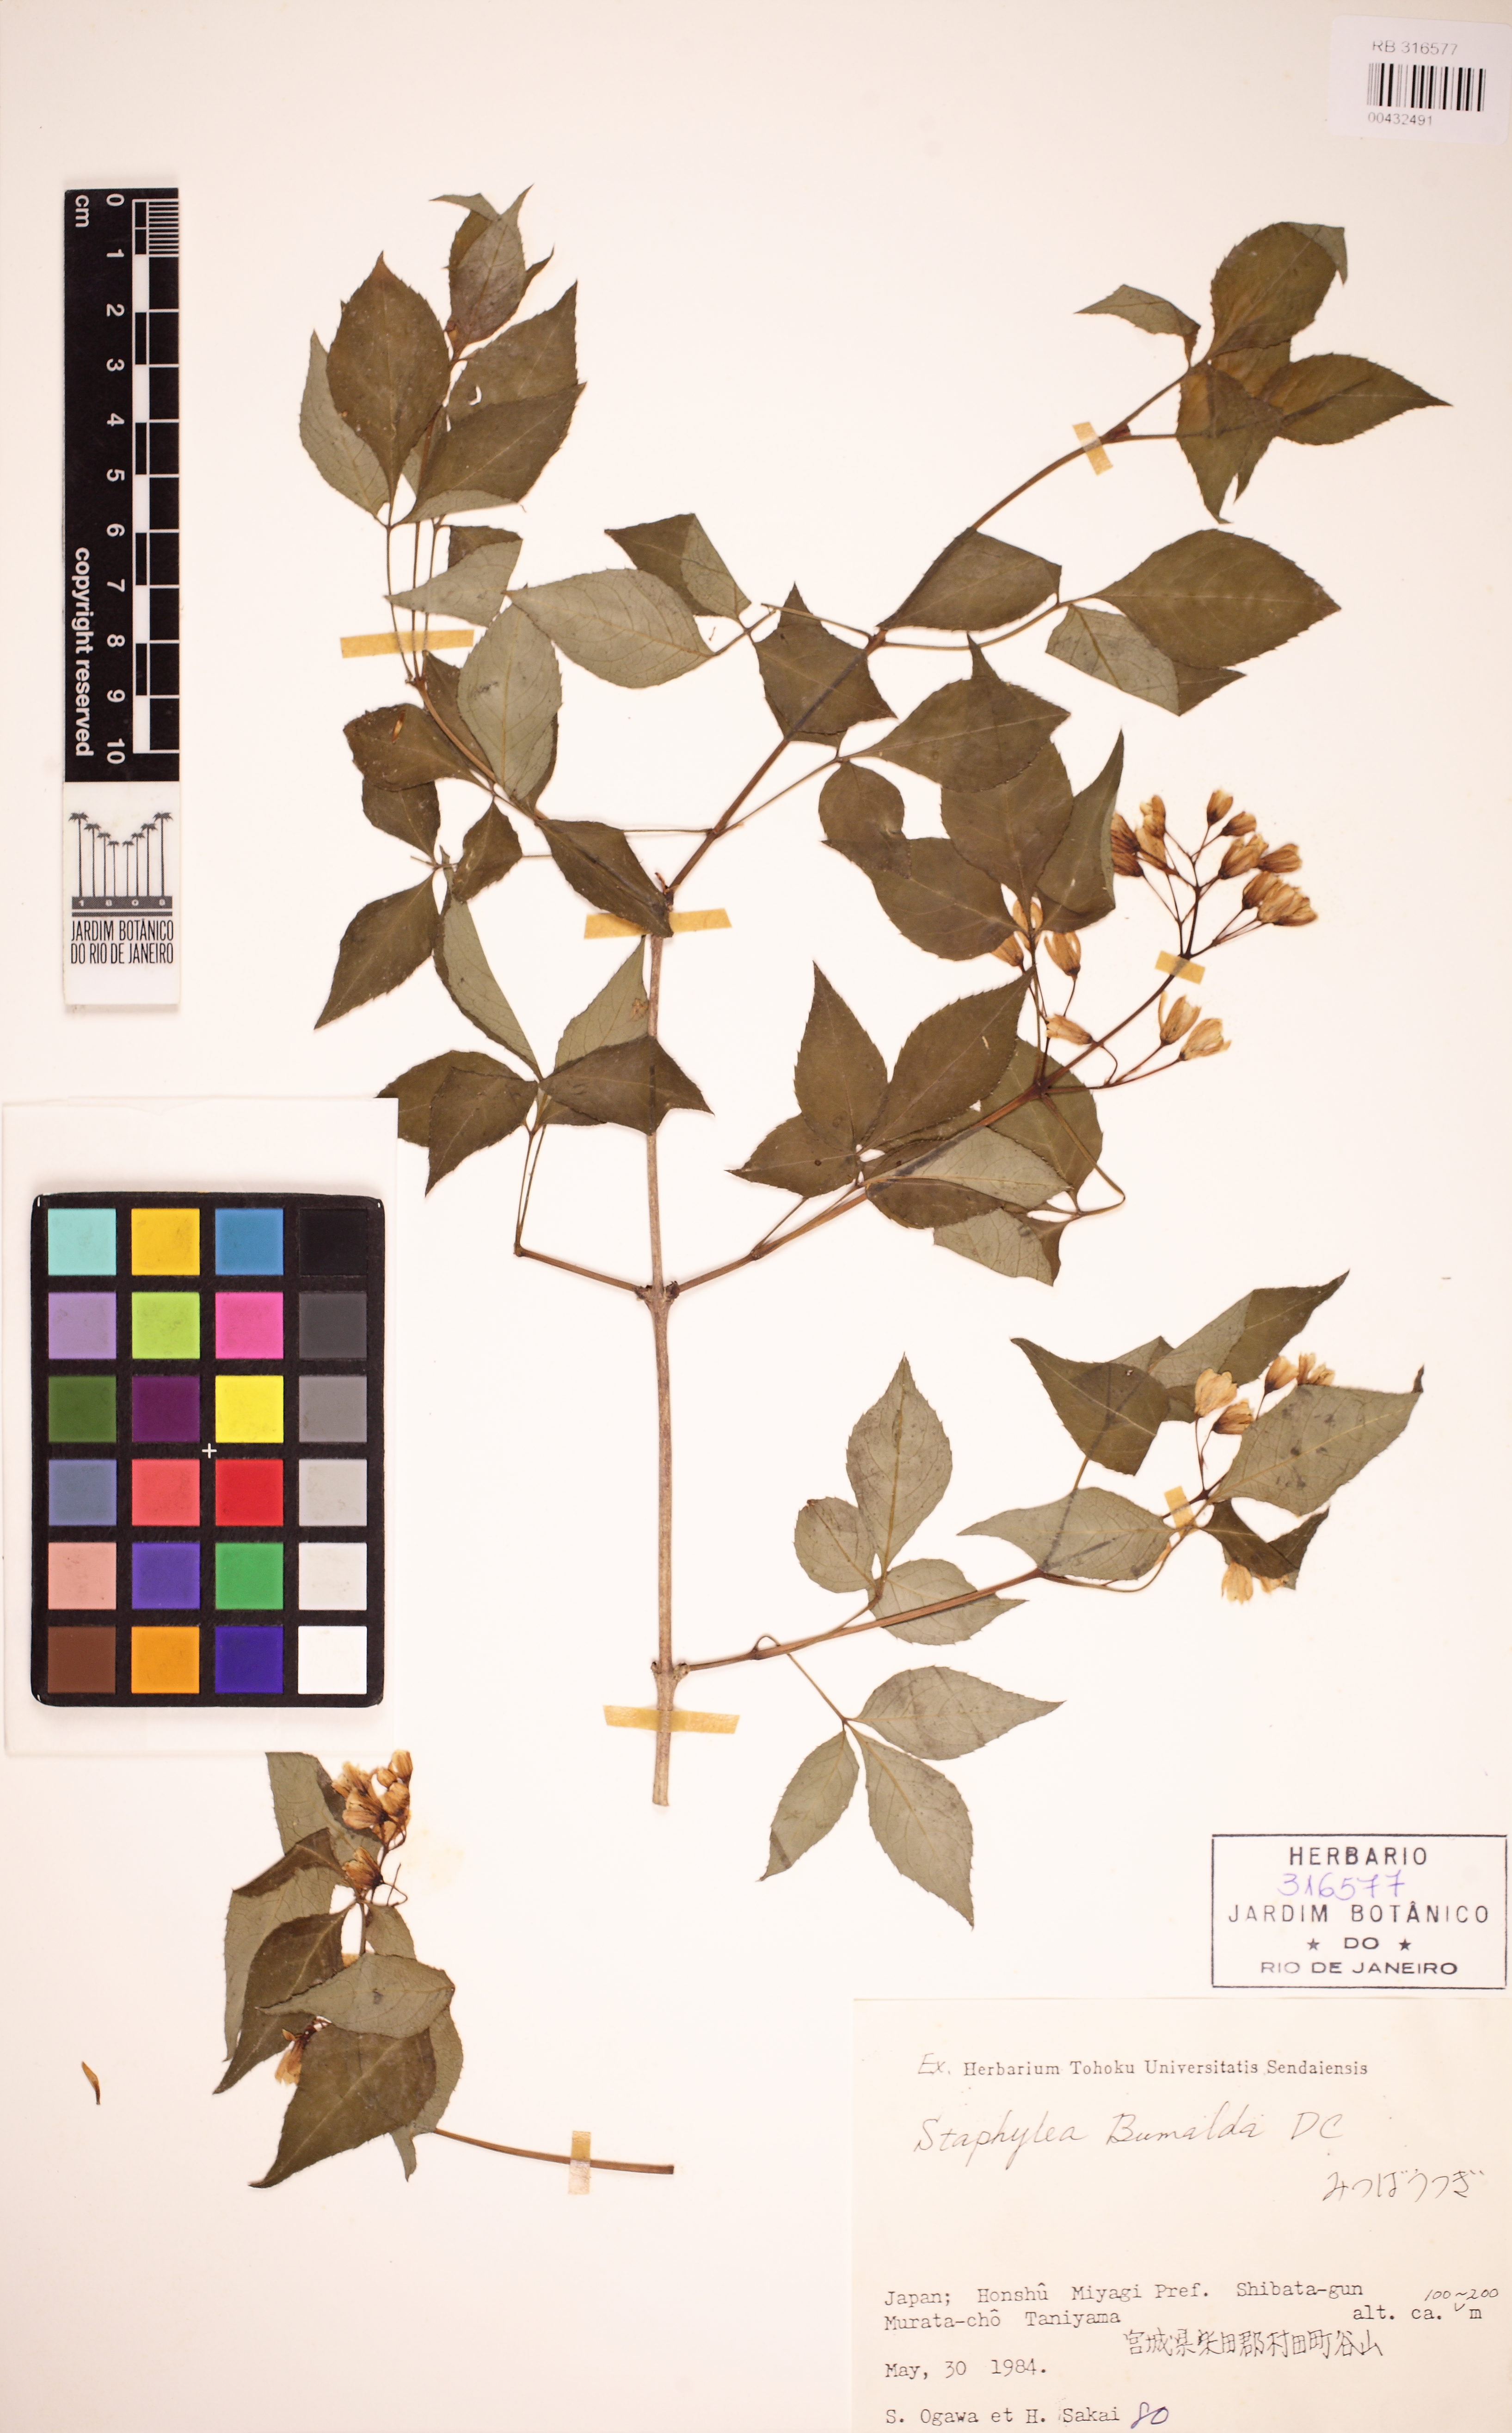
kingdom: Plantae
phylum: Tracheophyta
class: Magnoliopsida
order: Crossosomatales
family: Staphyleaceae
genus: Staphylea
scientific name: Staphylea bumalda
